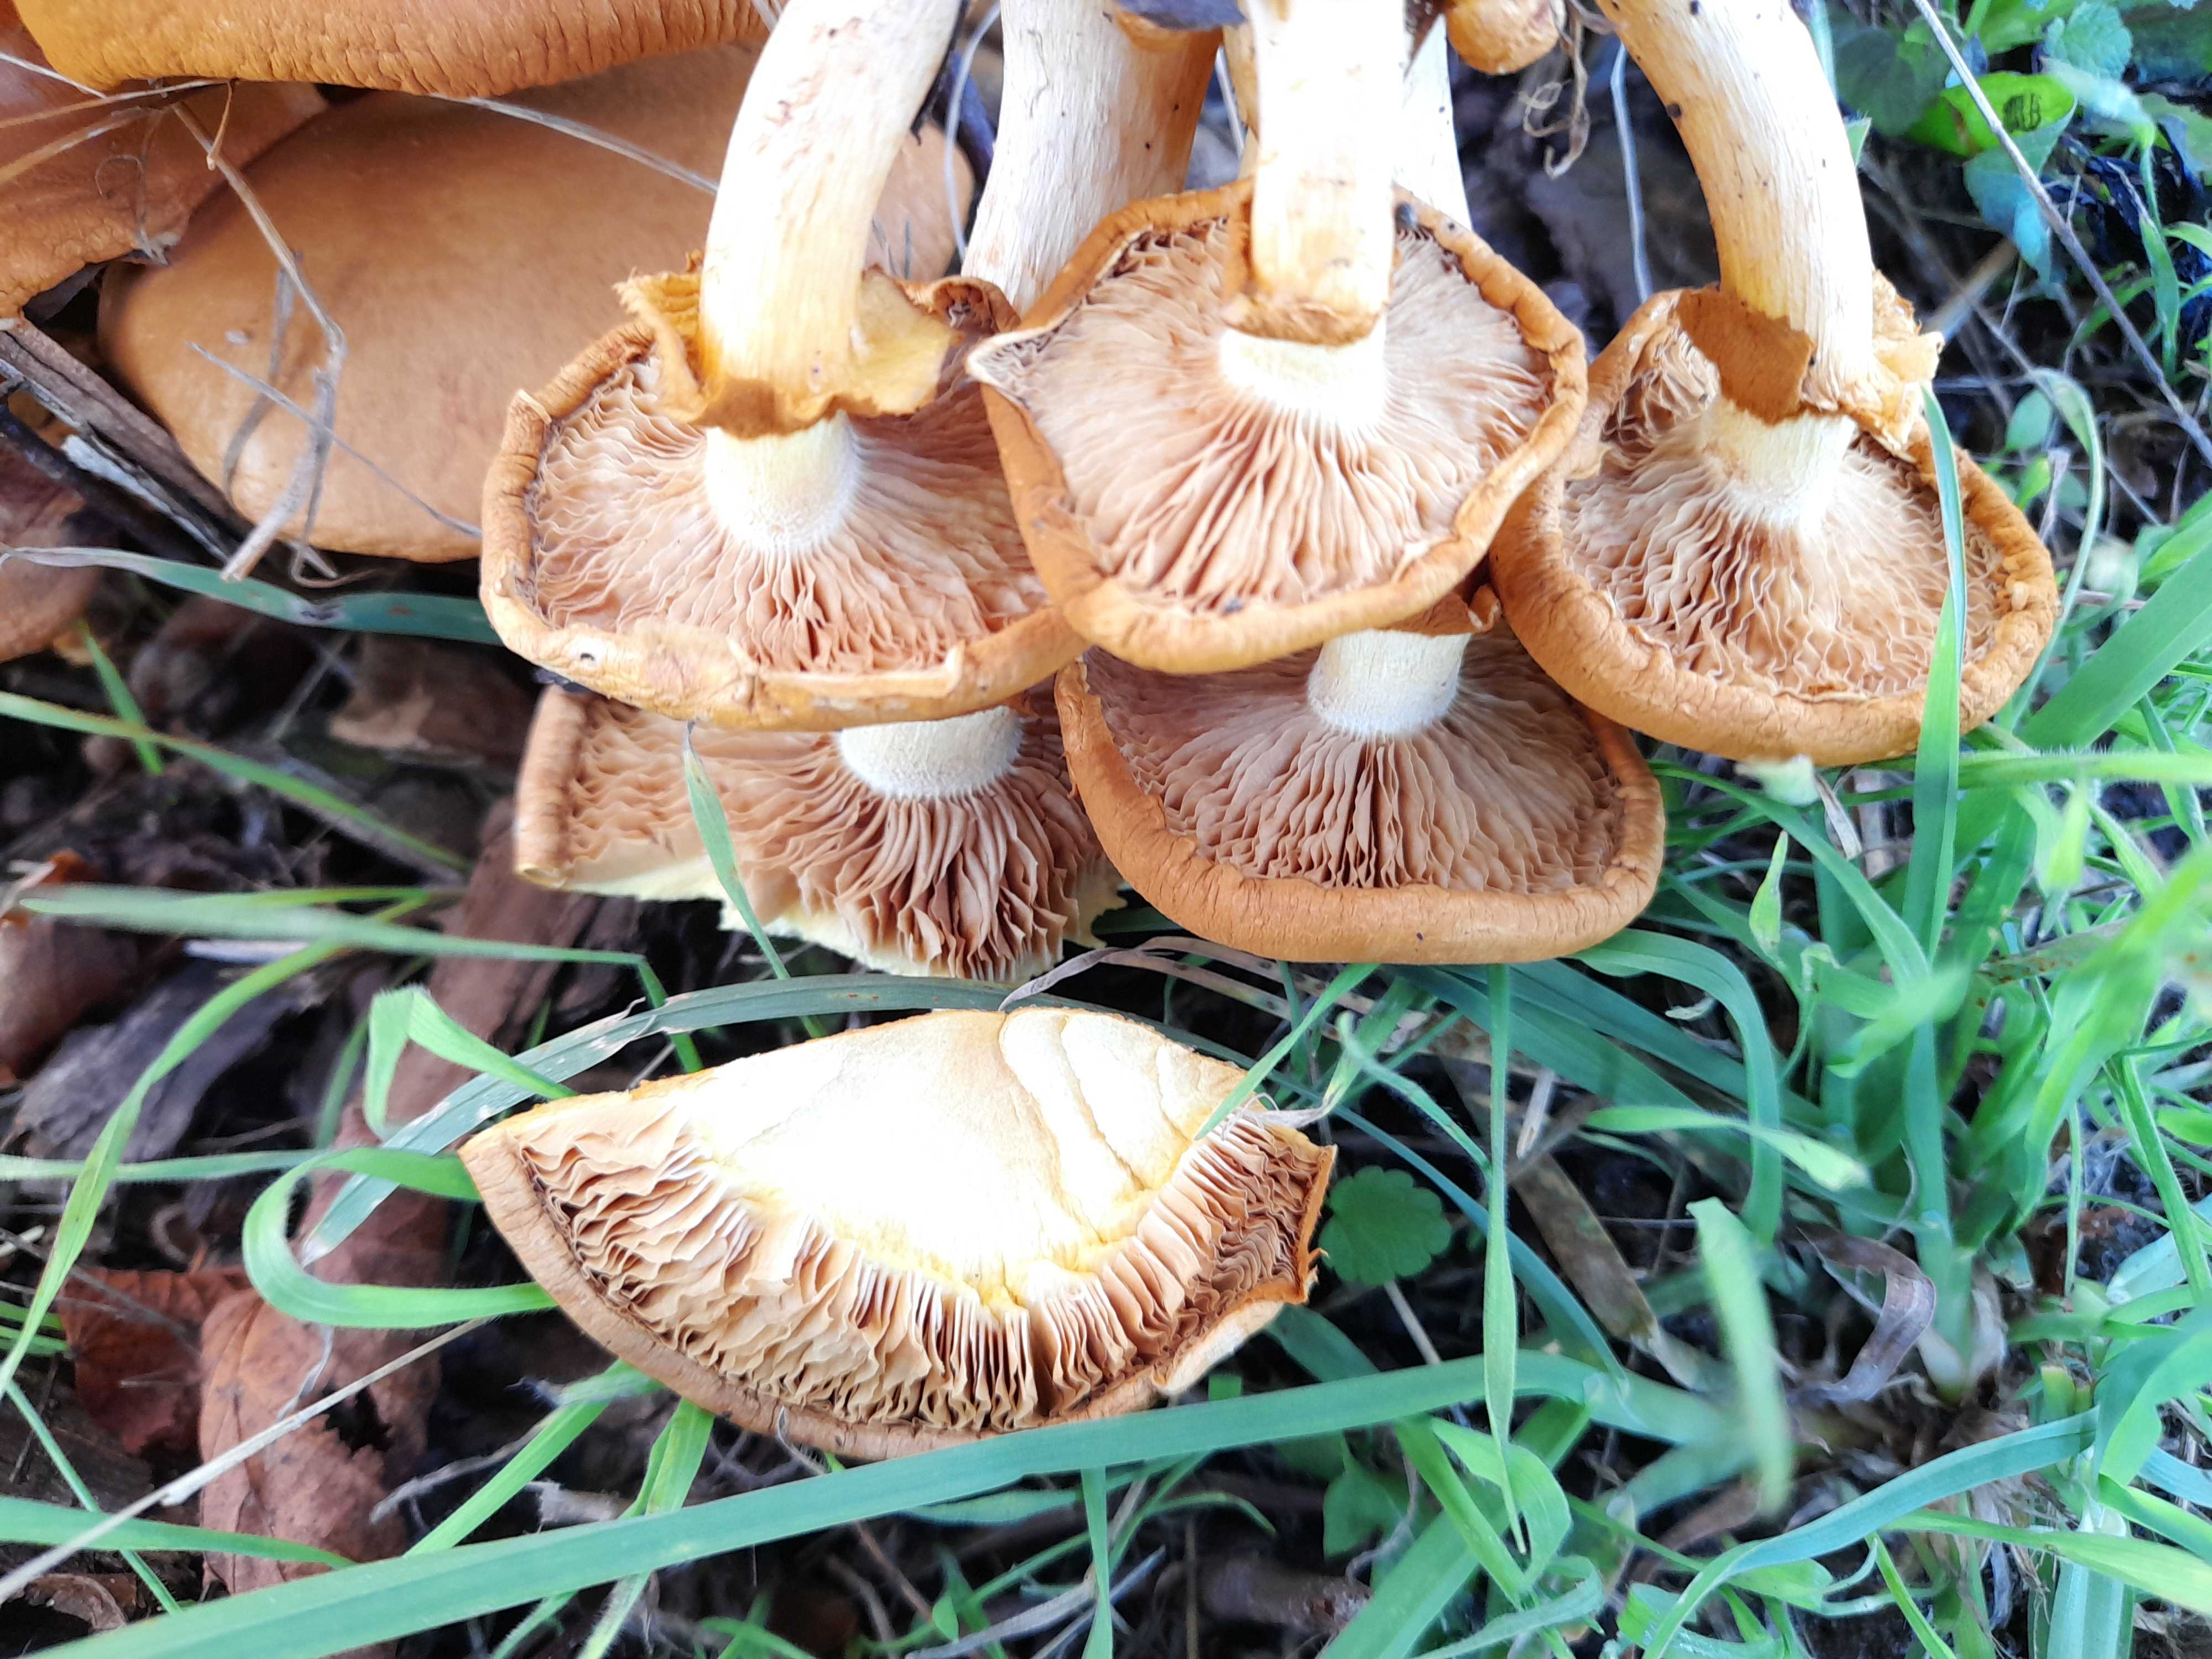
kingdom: Fungi
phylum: Basidiomycota
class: Agaricomycetes
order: Agaricales
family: Hymenogastraceae
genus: Gymnopilus
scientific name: Gymnopilus spectabilis
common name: fibret flammehat
